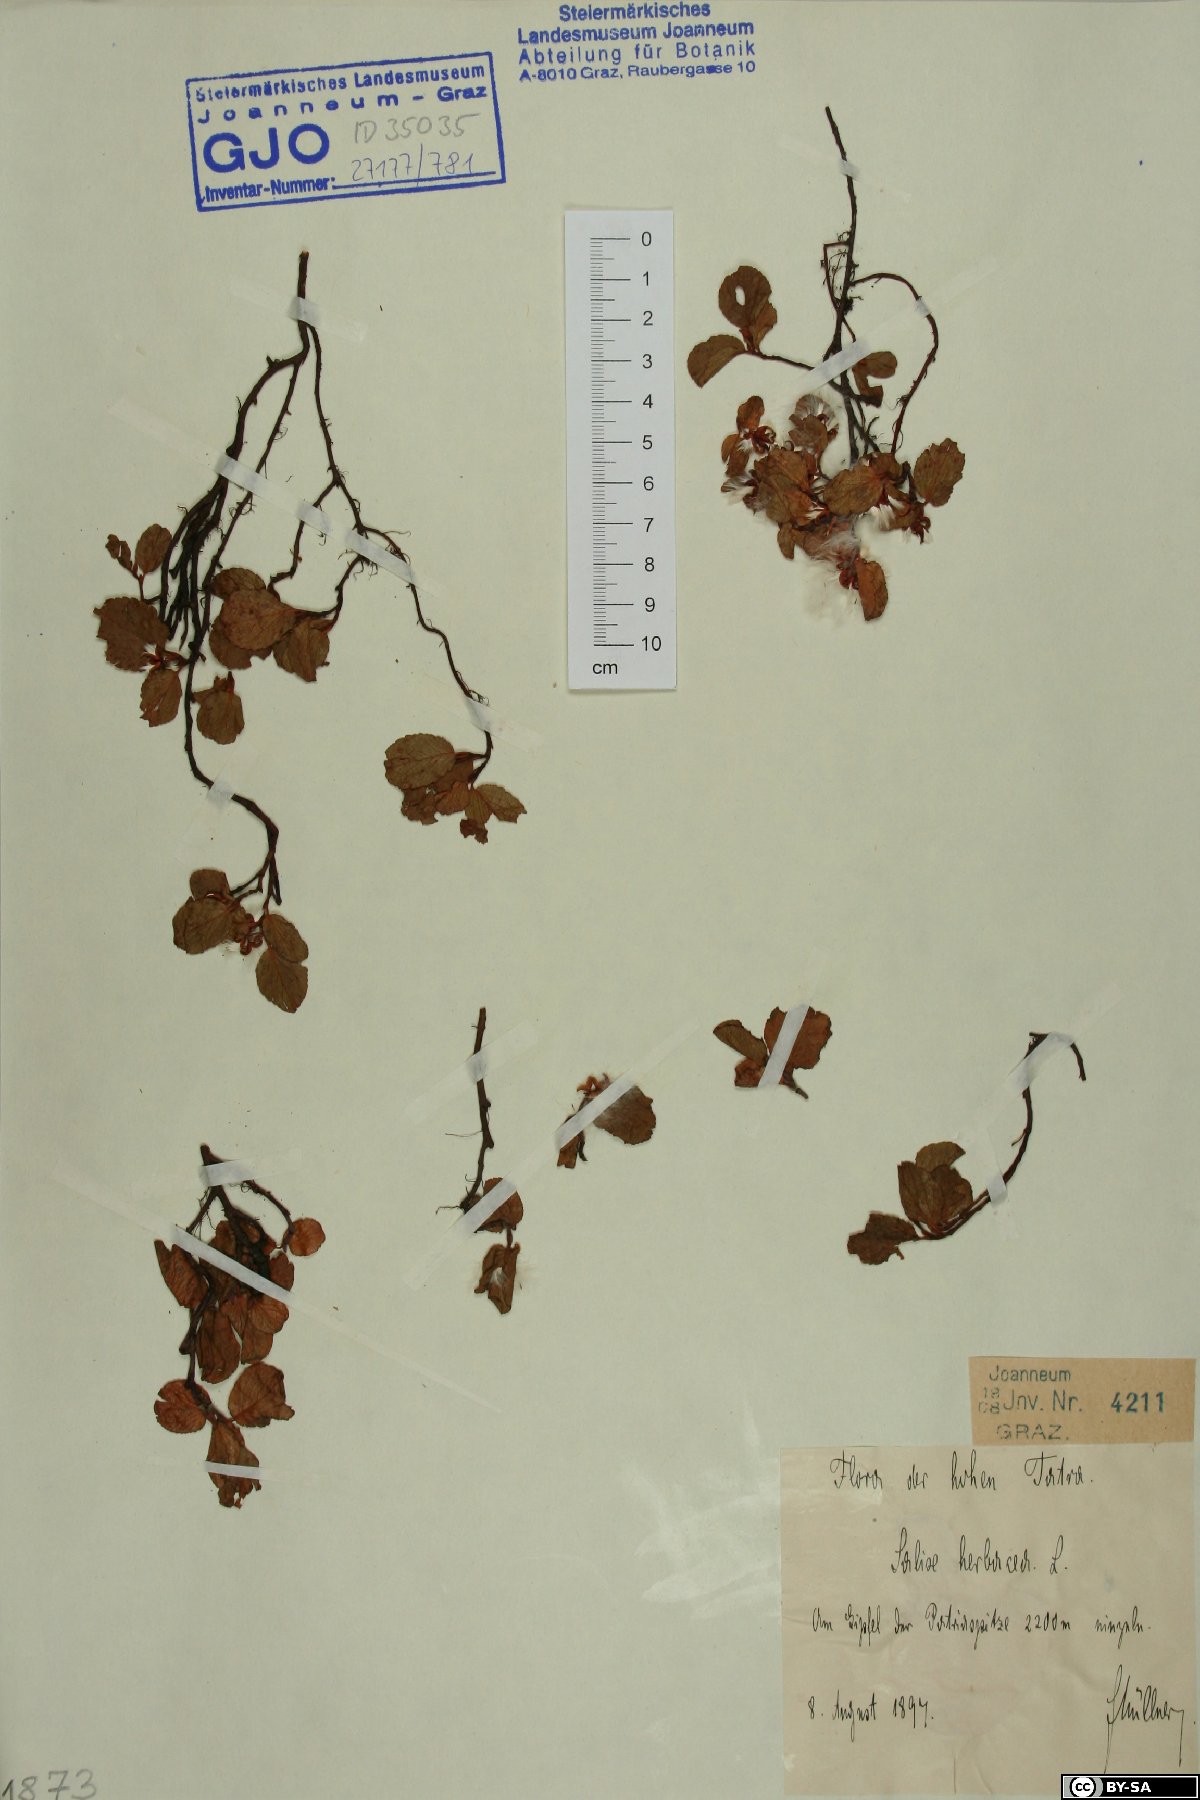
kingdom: Plantae
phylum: Tracheophyta
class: Magnoliopsida
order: Malpighiales
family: Salicaceae
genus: Salix
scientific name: Salix herbacea
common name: Dwarf willow
